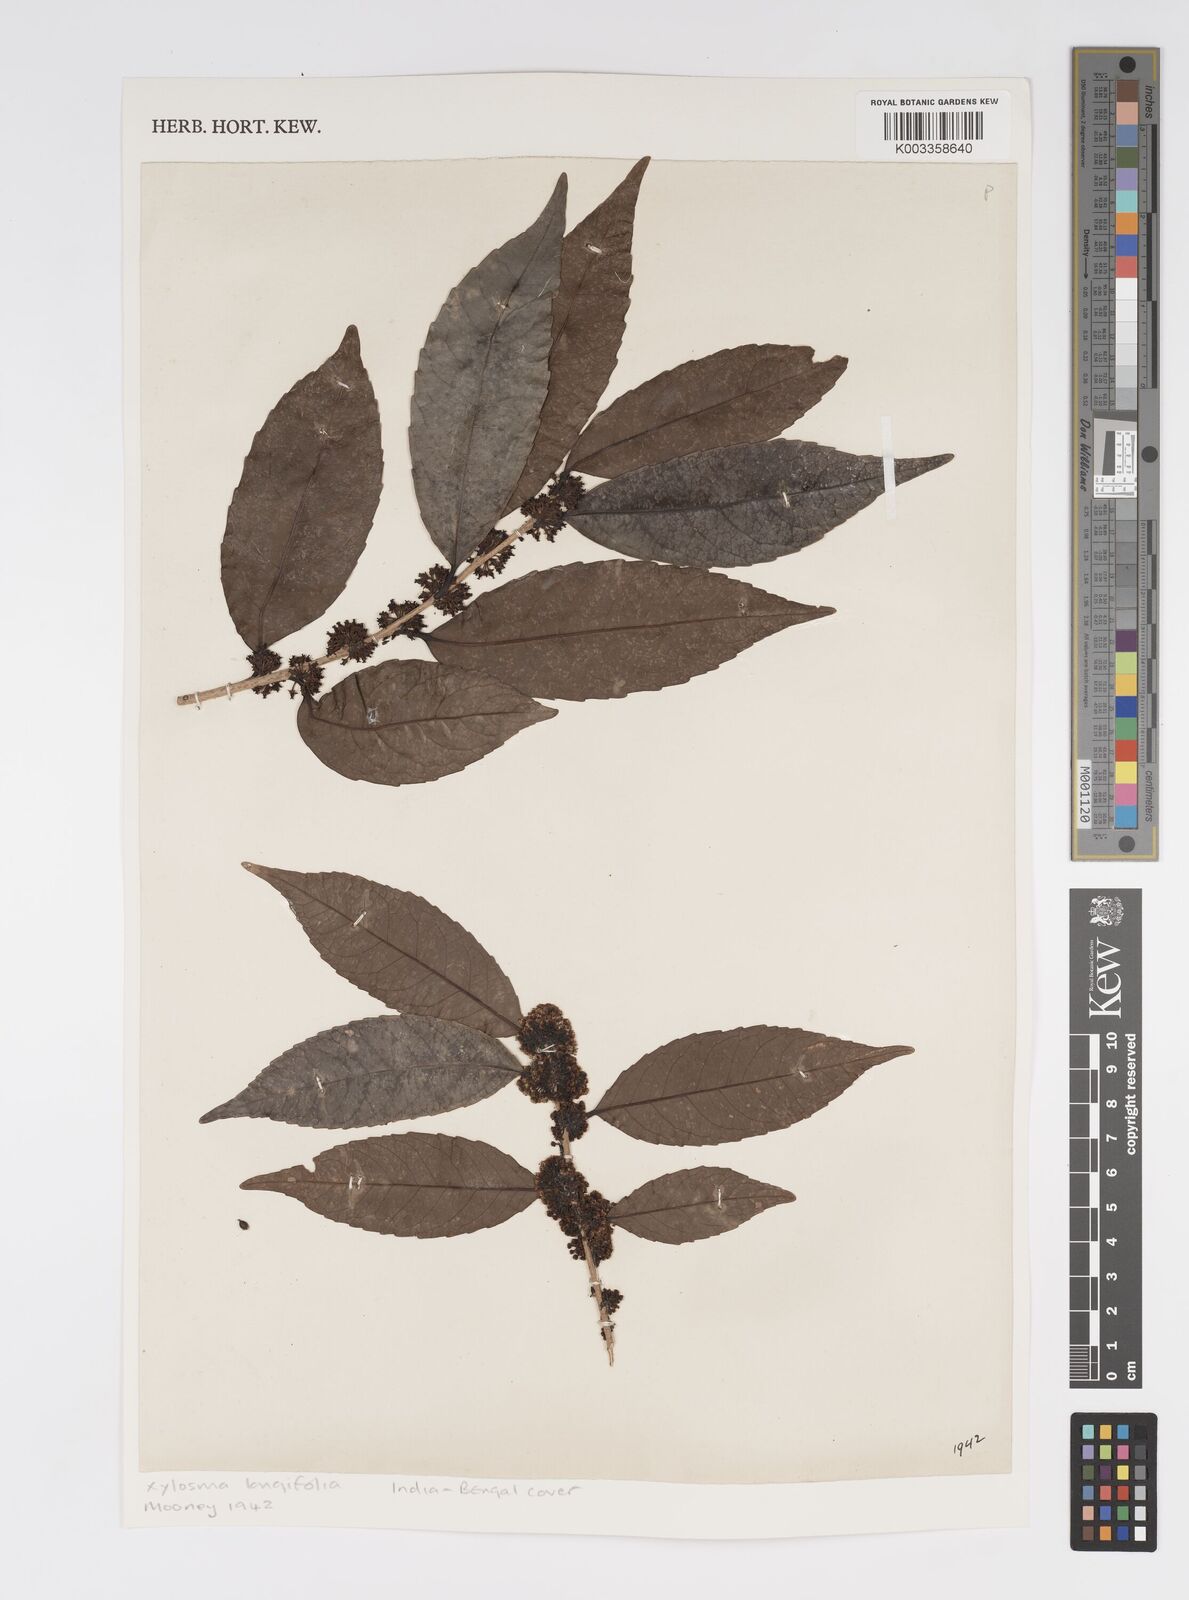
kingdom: Plantae
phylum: Tracheophyta
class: Magnoliopsida
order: Malpighiales
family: Salicaceae
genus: Xylosma
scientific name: Xylosma longifolia
